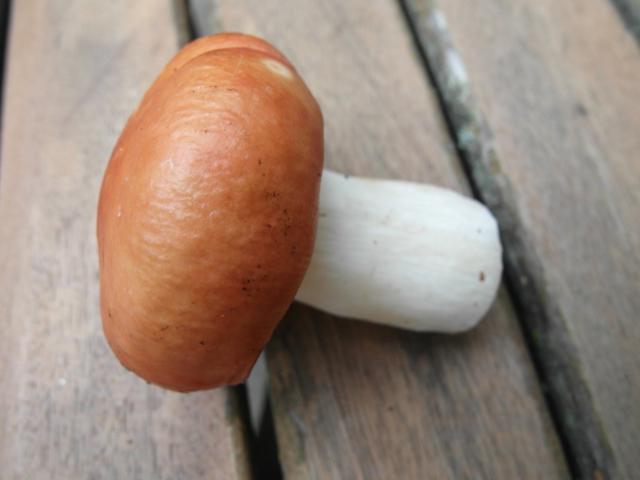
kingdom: Fungi
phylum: Basidiomycota
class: Agaricomycetes
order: Russulales
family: Russulaceae
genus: Russula
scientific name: Russula paludosa
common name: prægtig skørhat
